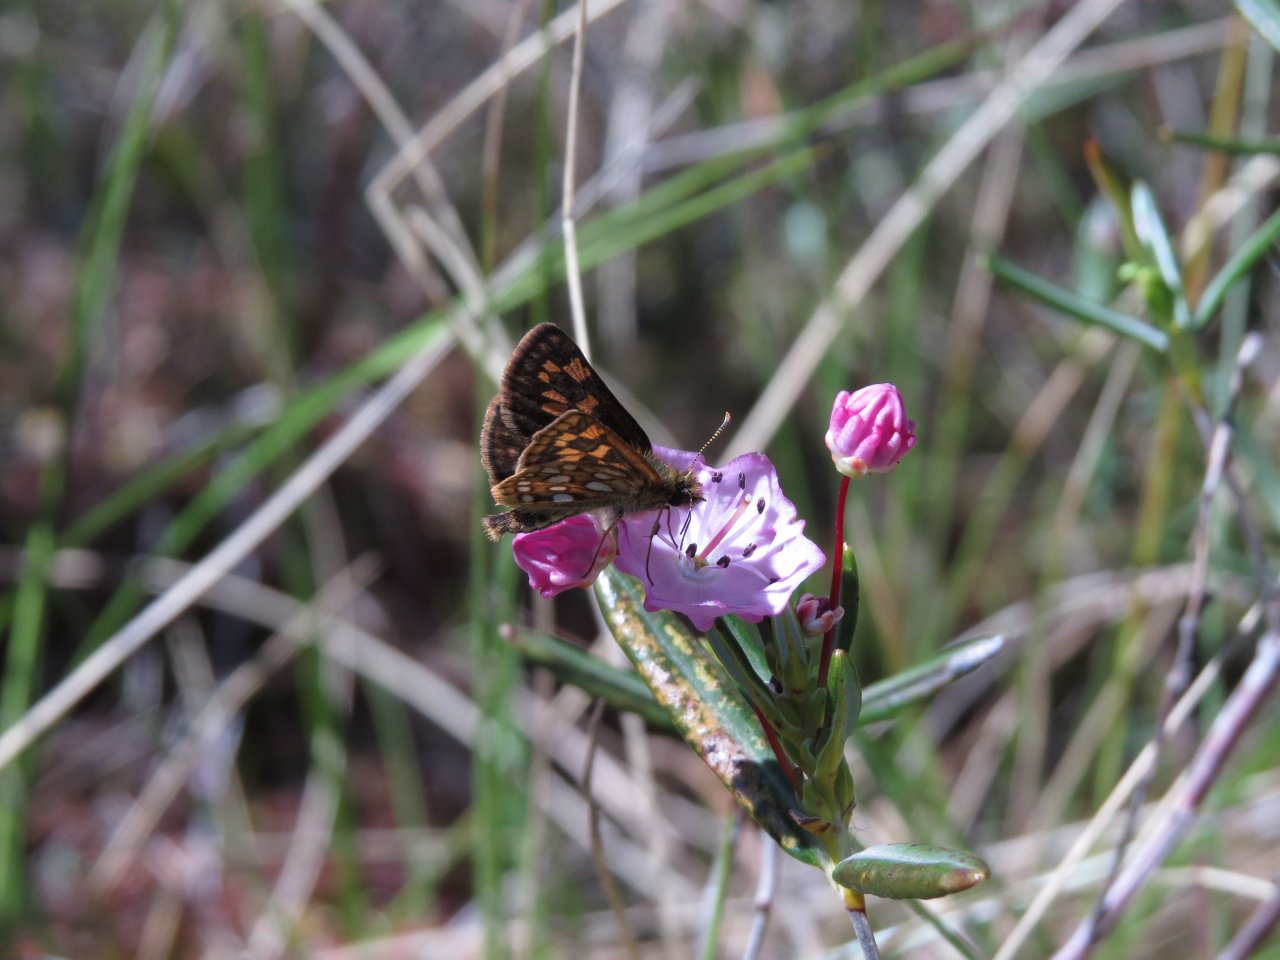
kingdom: Animalia
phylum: Arthropoda
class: Insecta
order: Lepidoptera
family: Hesperiidae
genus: Carterocephalus
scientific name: Carterocephalus palaemon
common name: Chequered Skipper
